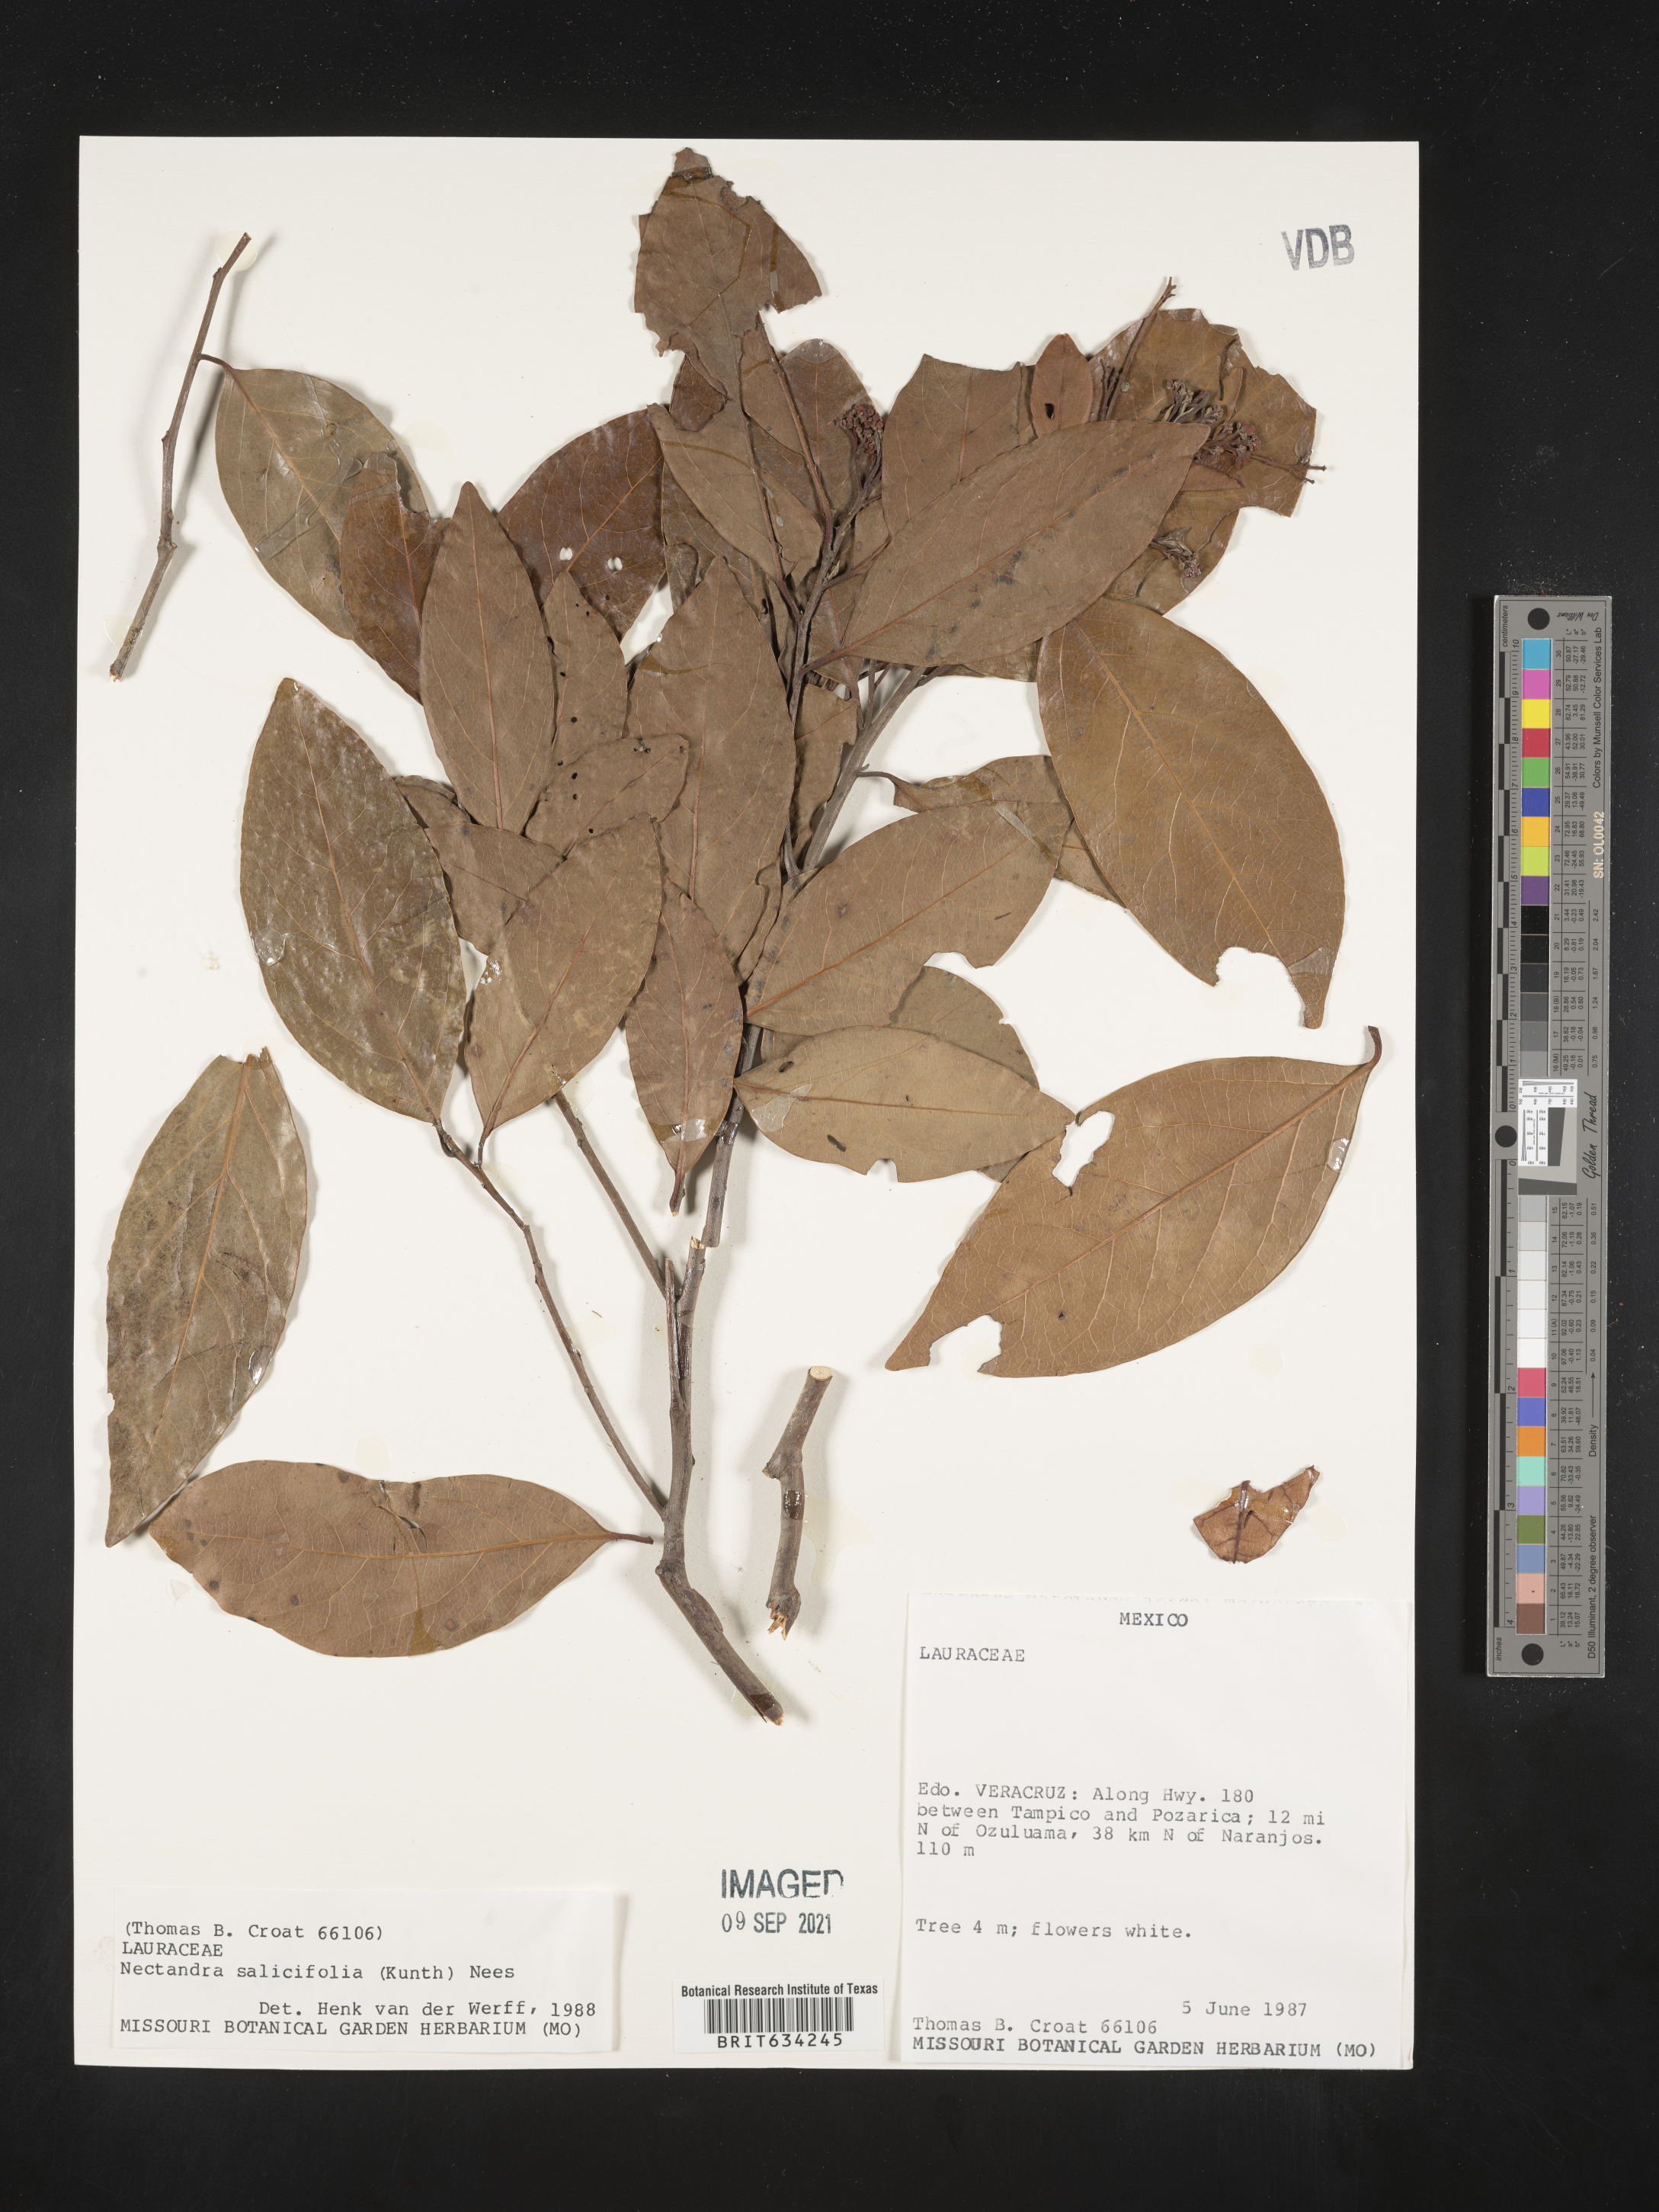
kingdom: Plantae
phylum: Tracheophyta
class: Magnoliopsida
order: Laurales
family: Lauraceae
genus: Nectandra
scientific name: Nectandra
